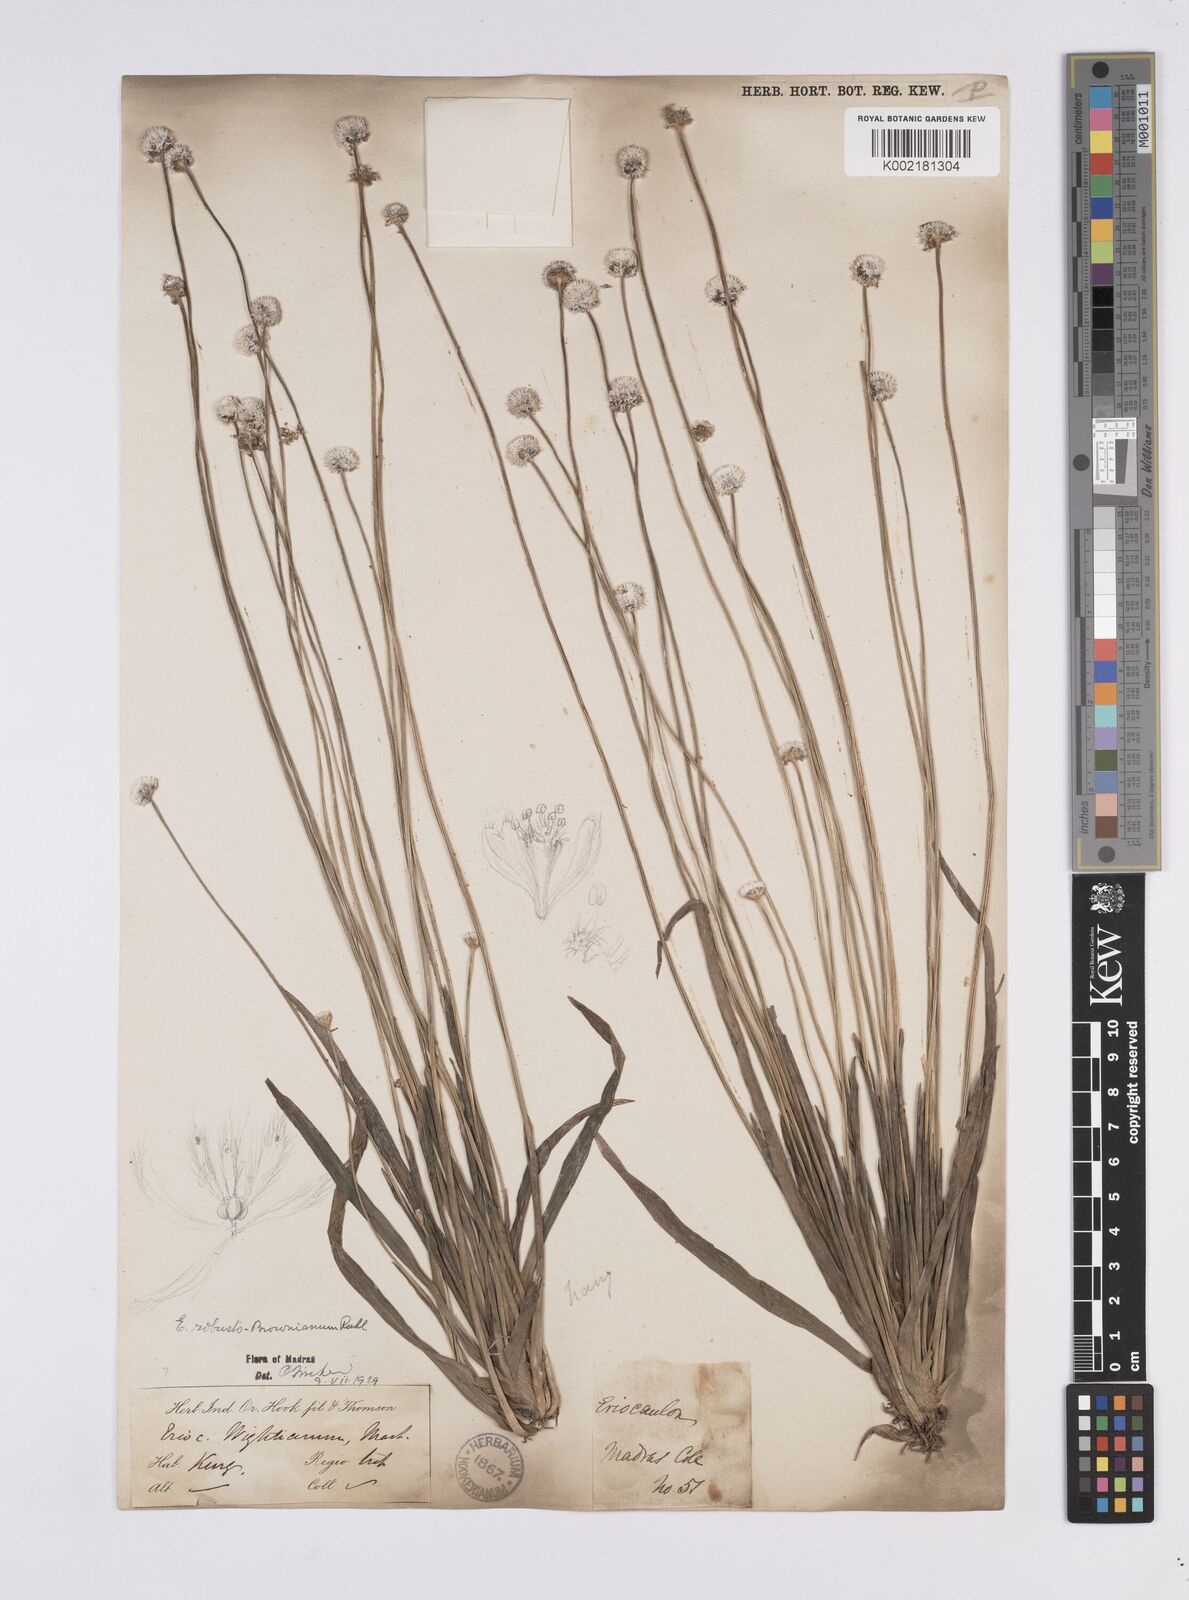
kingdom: Plantae
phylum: Tracheophyta
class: Liliopsida
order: Poales
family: Eriocaulaceae
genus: Eriocaulon
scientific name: Eriocaulon robustobrownianum
